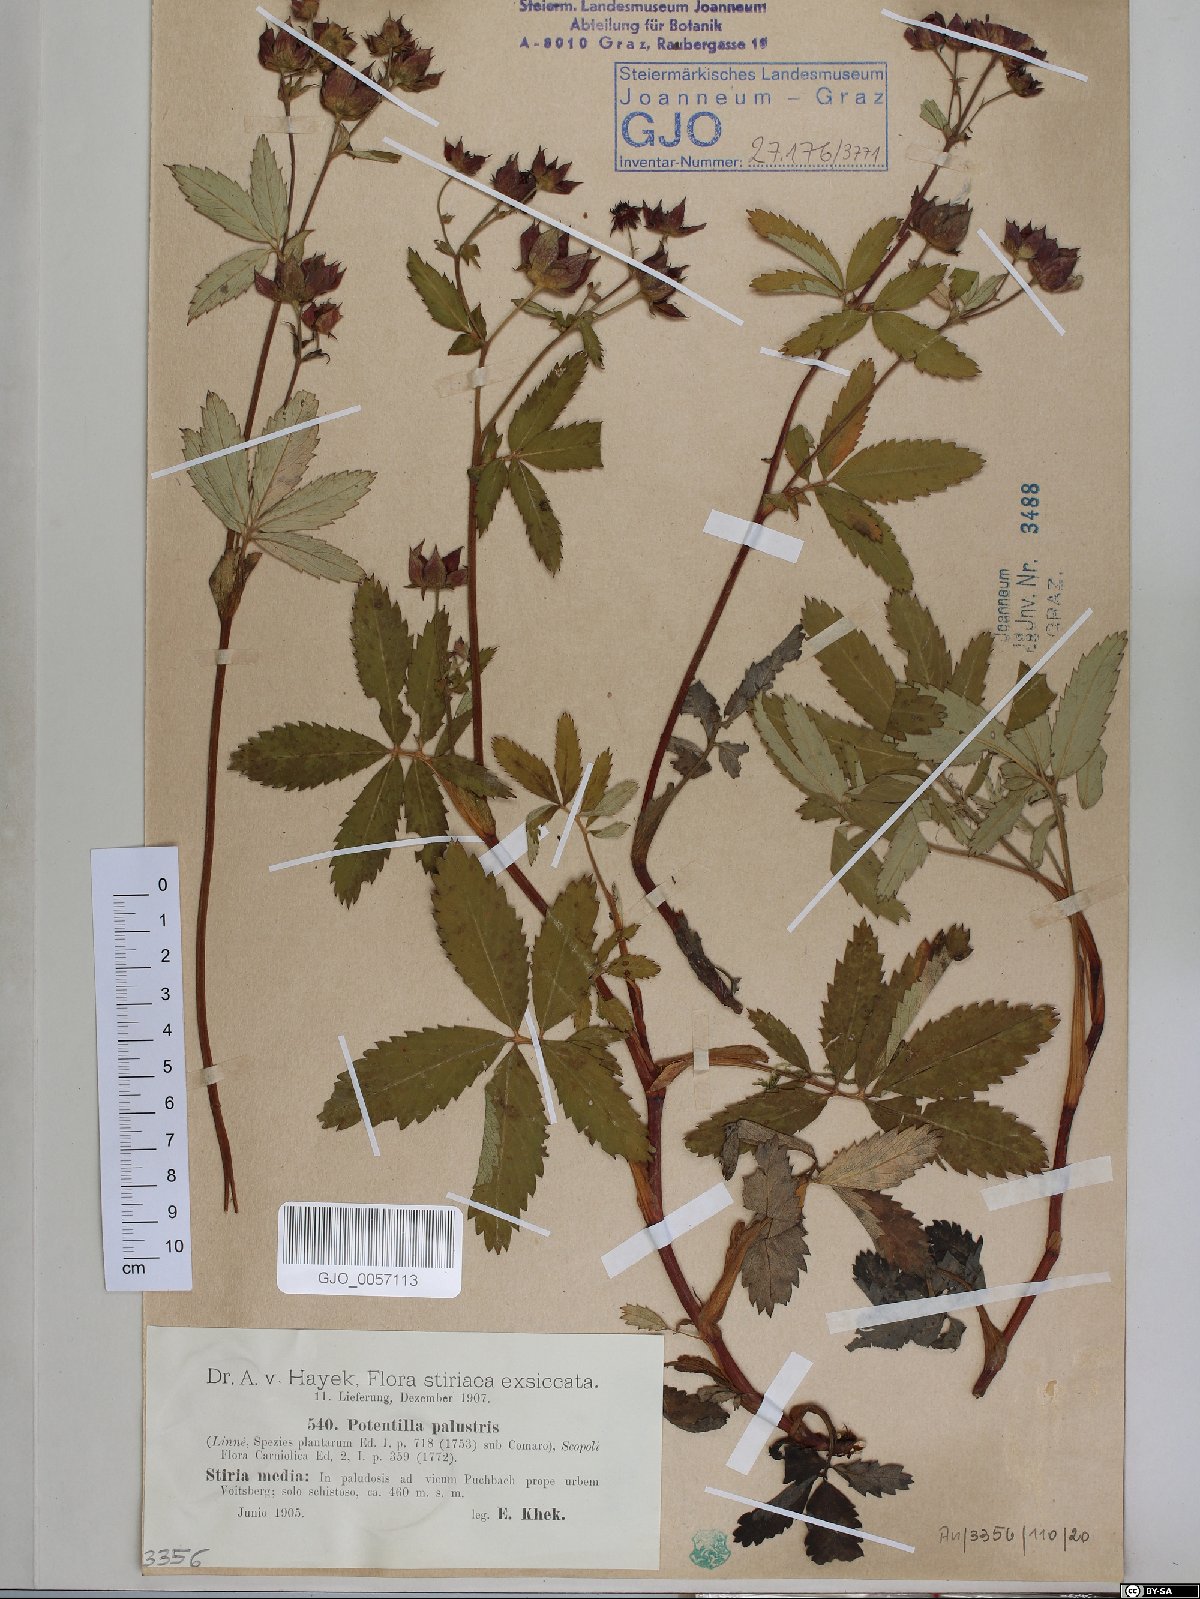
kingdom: Plantae
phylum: Tracheophyta
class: Magnoliopsida
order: Rosales
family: Rosaceae
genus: Comarum
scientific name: Comarum palustre
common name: Marsh cinquefoil
